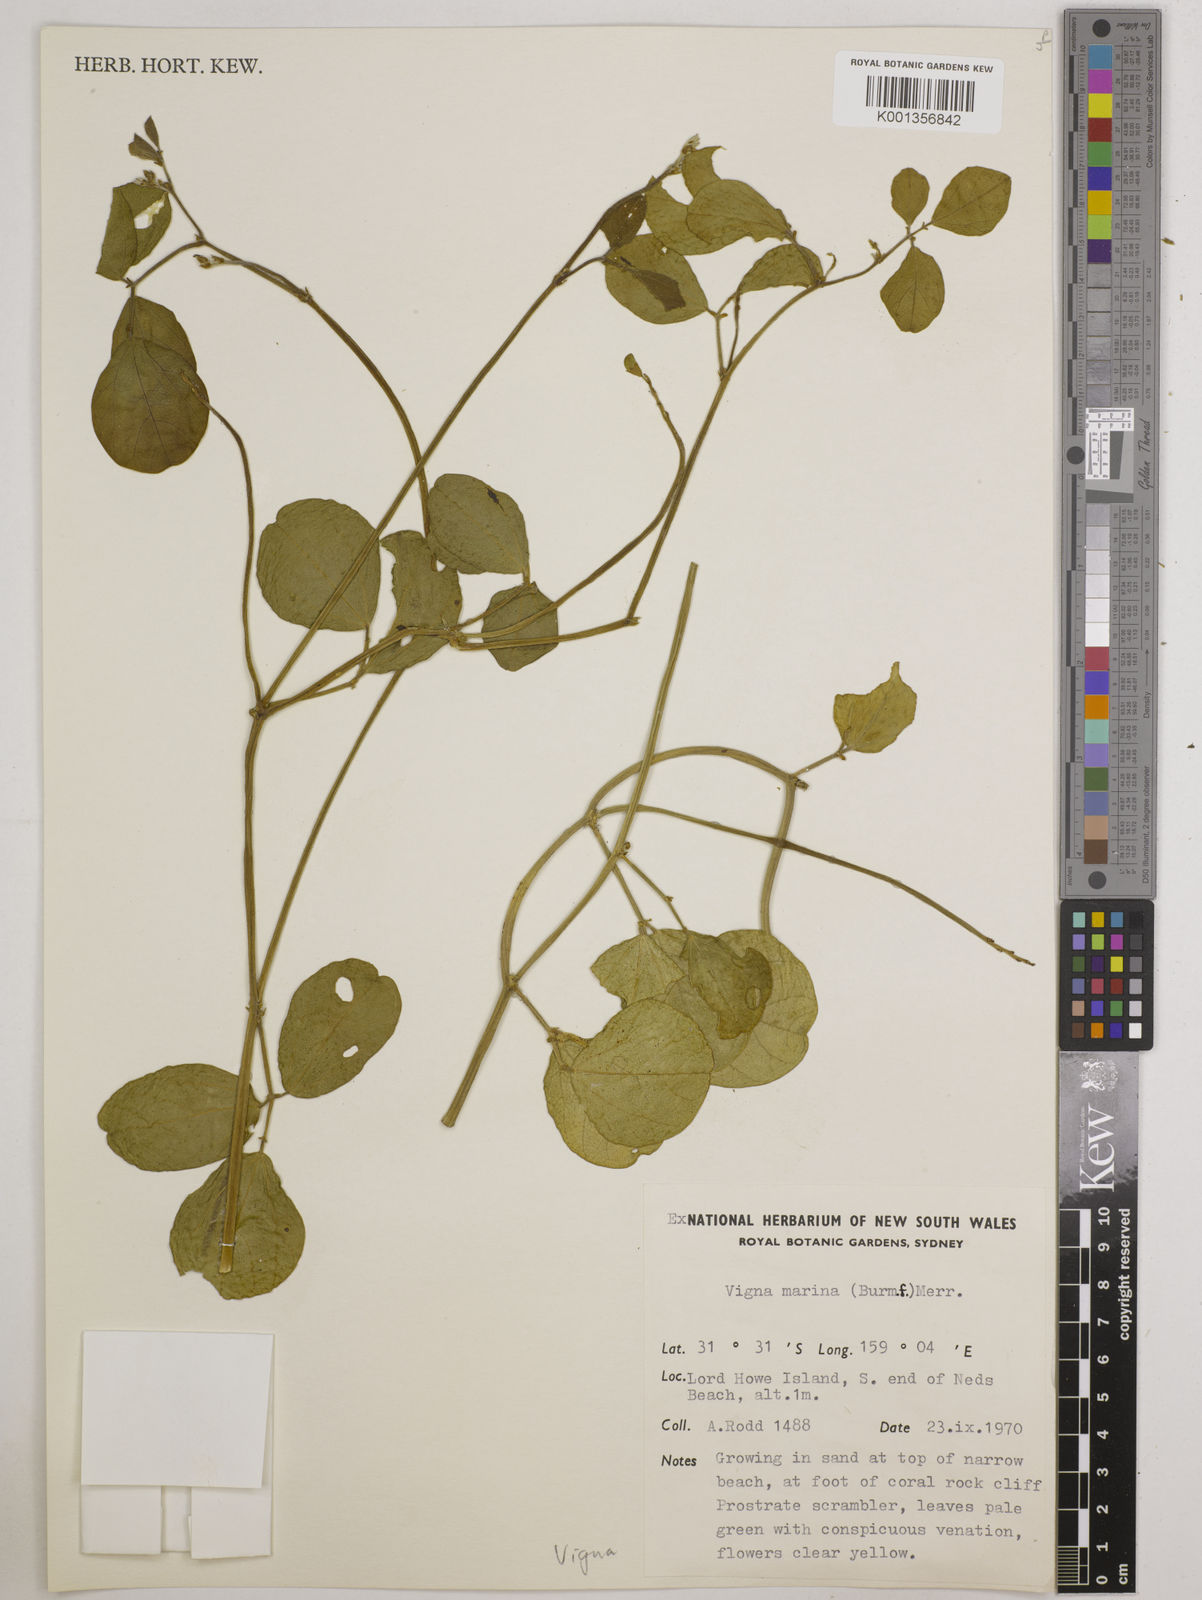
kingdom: Plantae
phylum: Tracheophyta
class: Magnoliopsida
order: Fabales
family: Fabaceae
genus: Vigna
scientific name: Vigna marina
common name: Dune-bean
